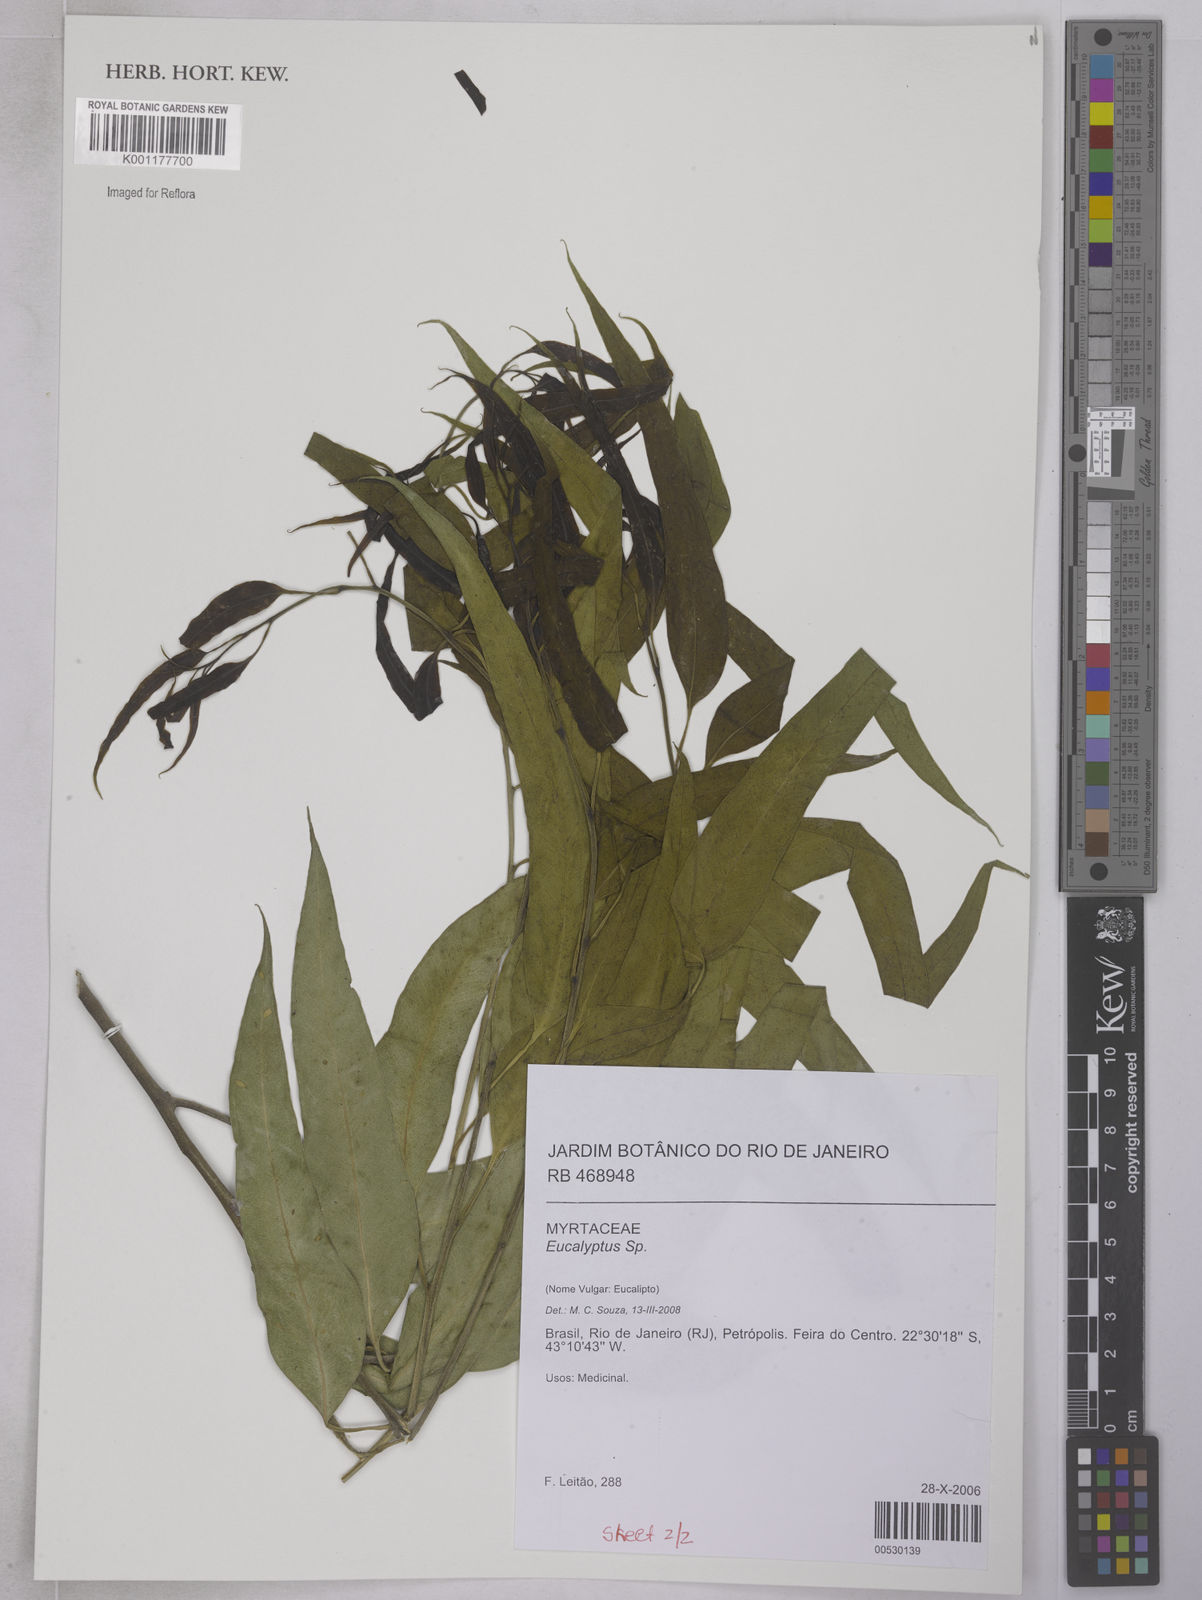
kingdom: Plantae
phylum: Tracheophyta
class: Magnoliopsida
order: Myrtales
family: Myrtaceae
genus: Myrcia
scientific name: Myrcia bergiana
